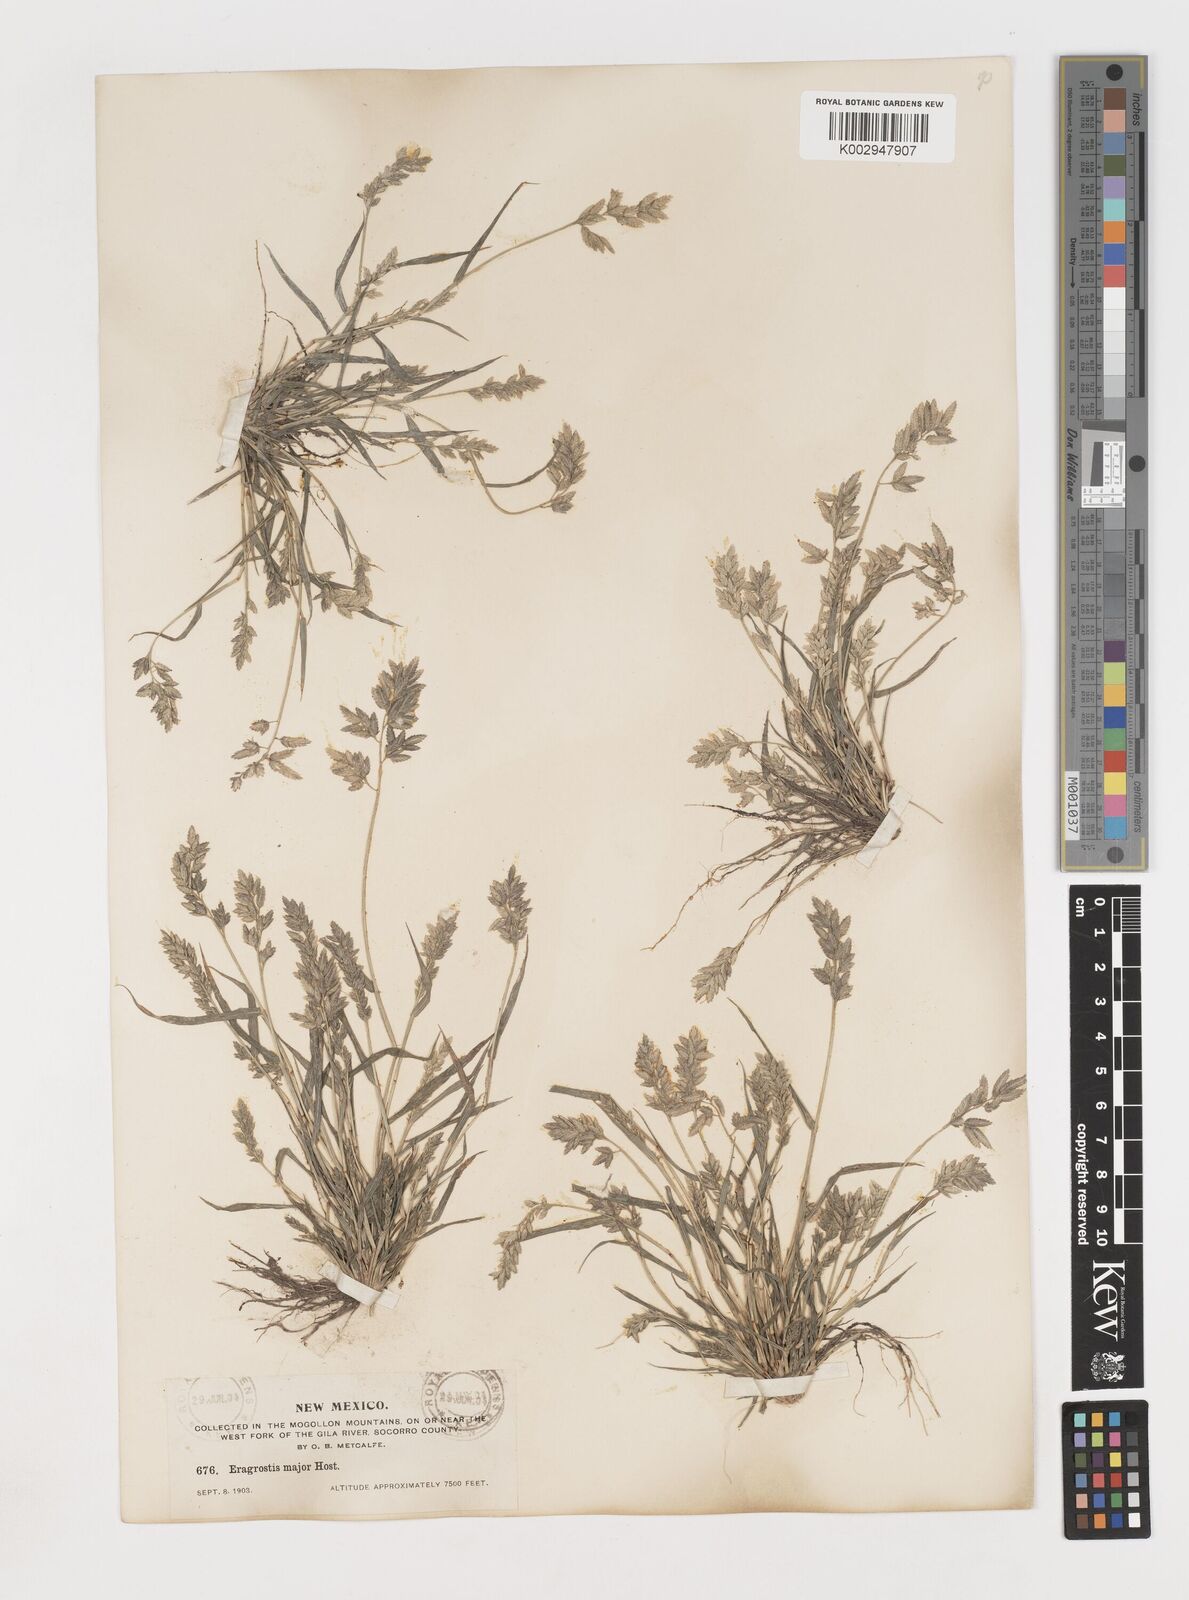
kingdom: Plantae
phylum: Tracheophyta
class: Liliopsida
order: Poales
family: Poaceae
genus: Eragrostis
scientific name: Eragrostis
